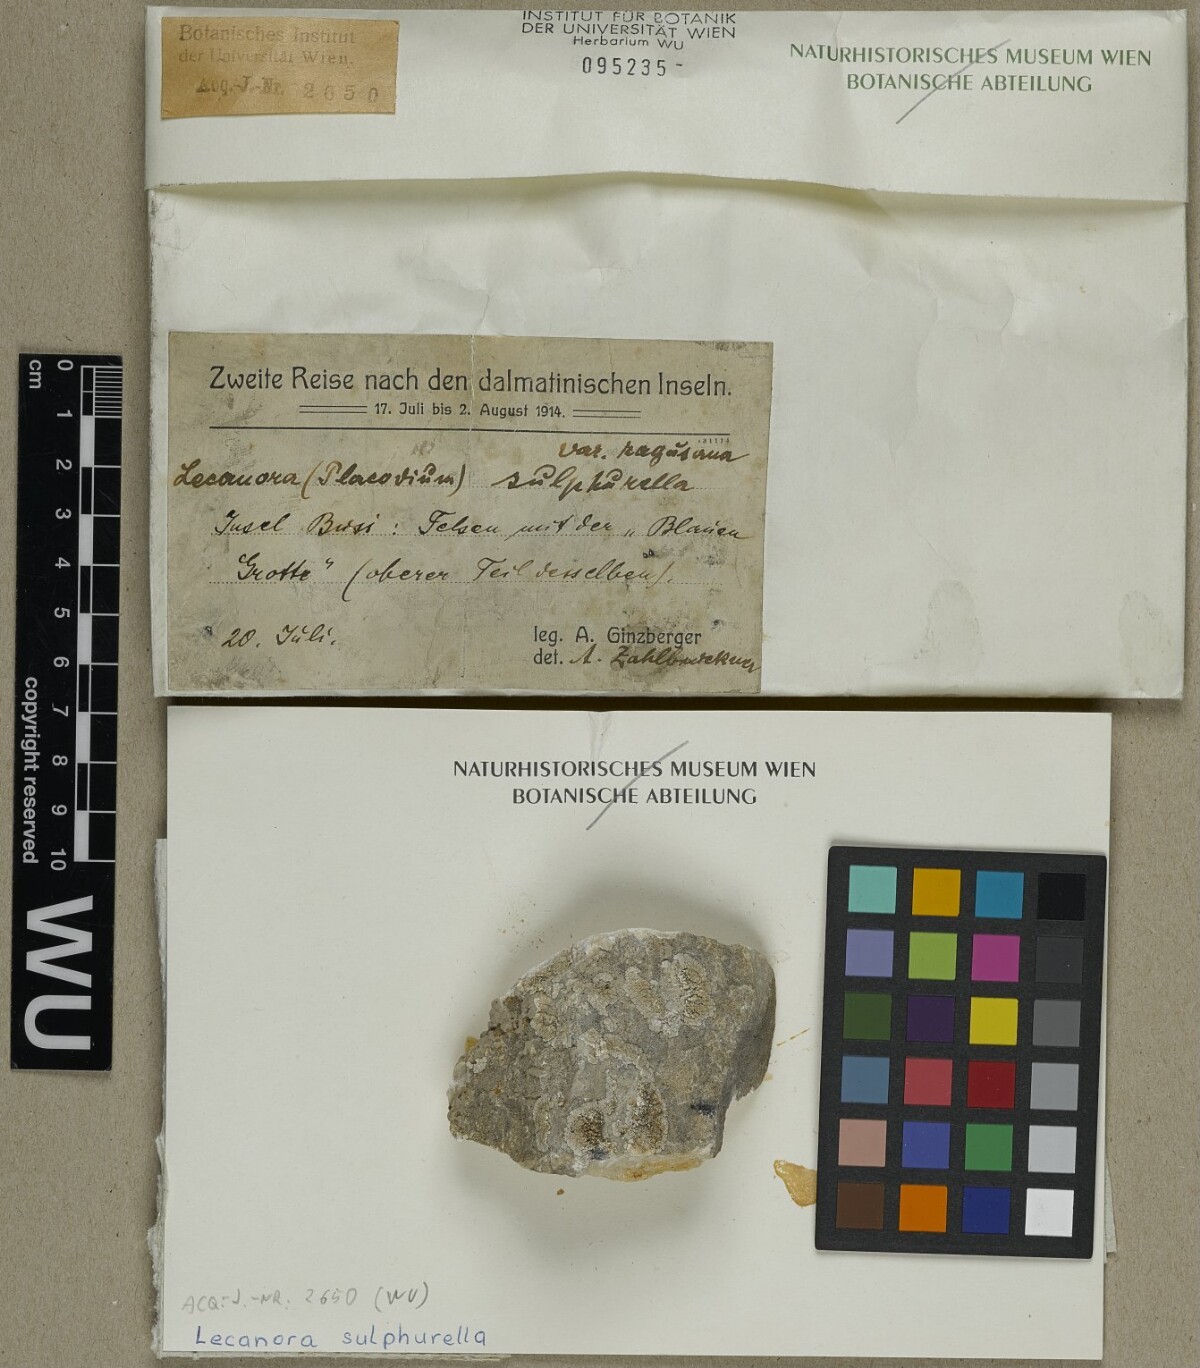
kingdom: Fungi
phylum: Ascomycota
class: Lecanoromycetes
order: Lecanorales
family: Lecanoraceae
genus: Lecanora
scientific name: Lecanora sulphurella
